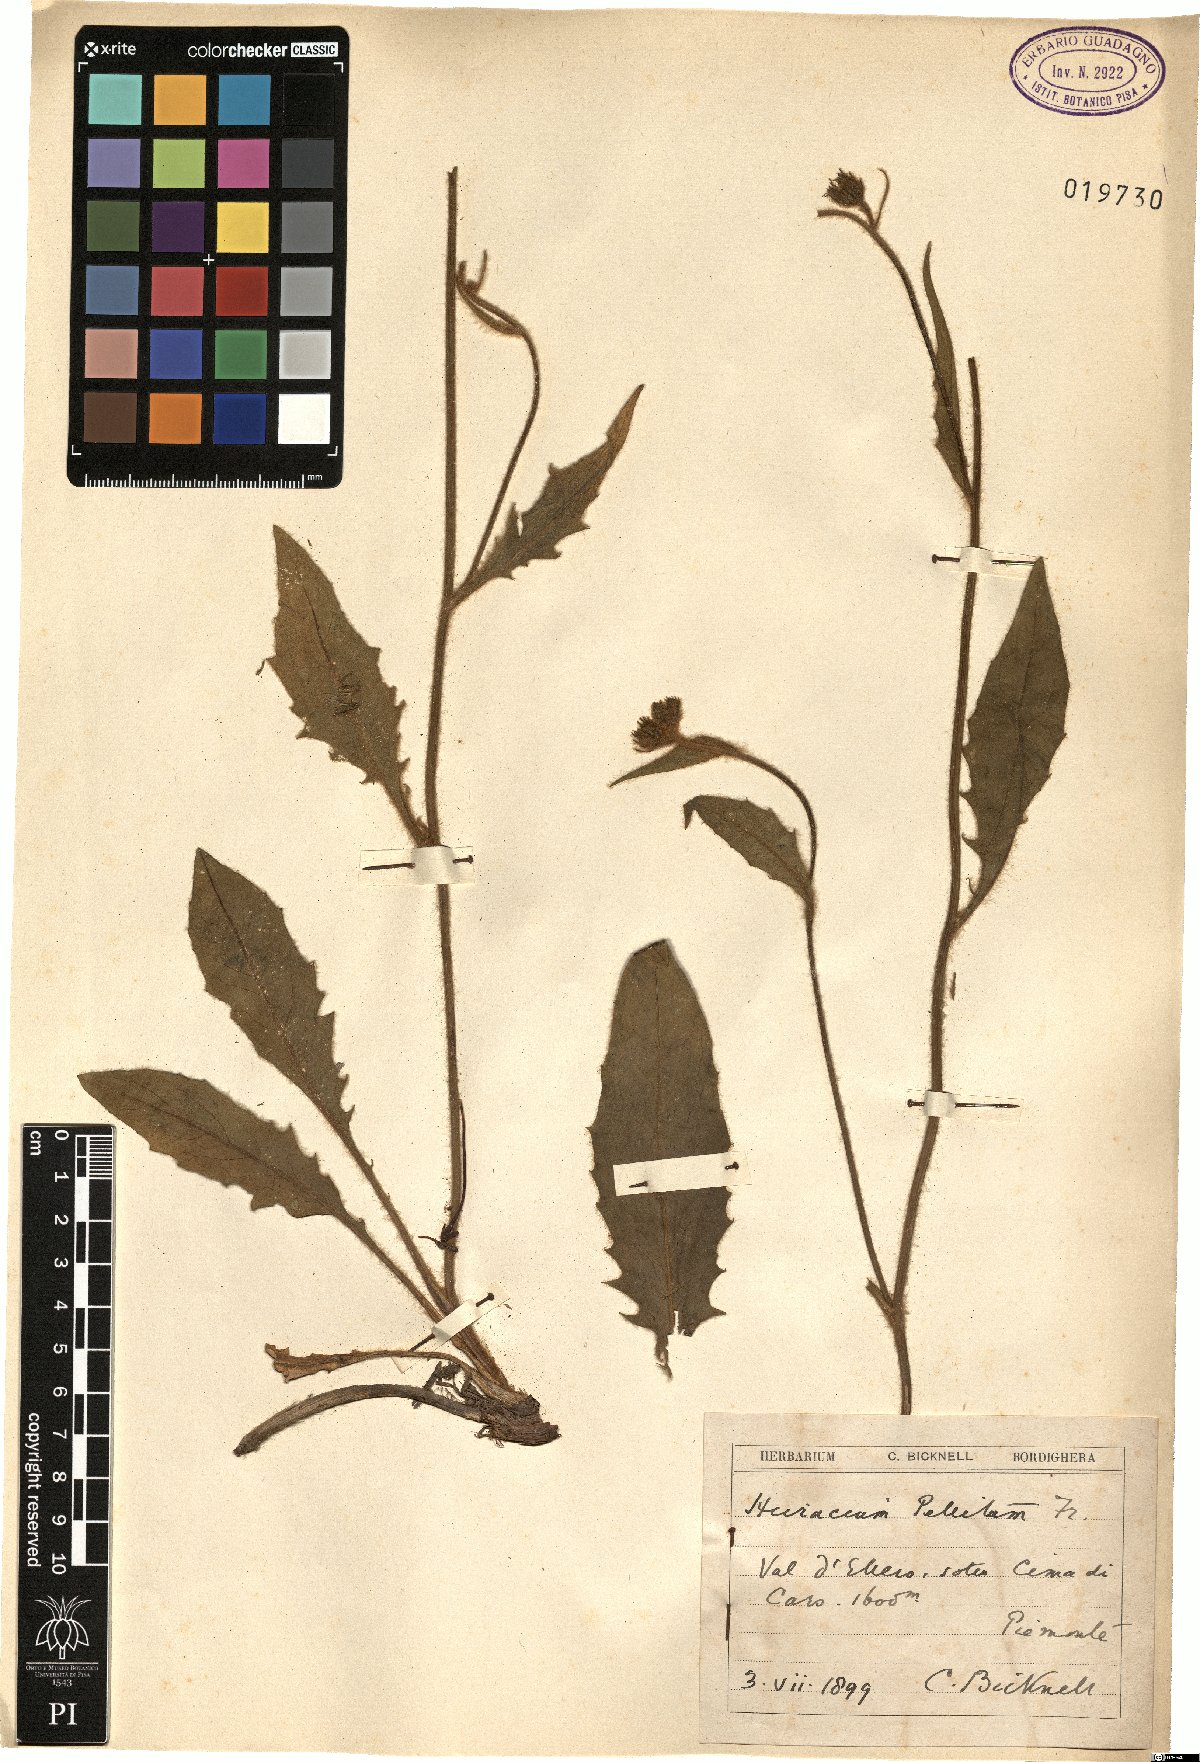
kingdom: Plantae
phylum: Tracheophyta
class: Magnoliopsida
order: Asterales
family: Asteraceae
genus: Hieracium
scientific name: Hieracium pellitum
